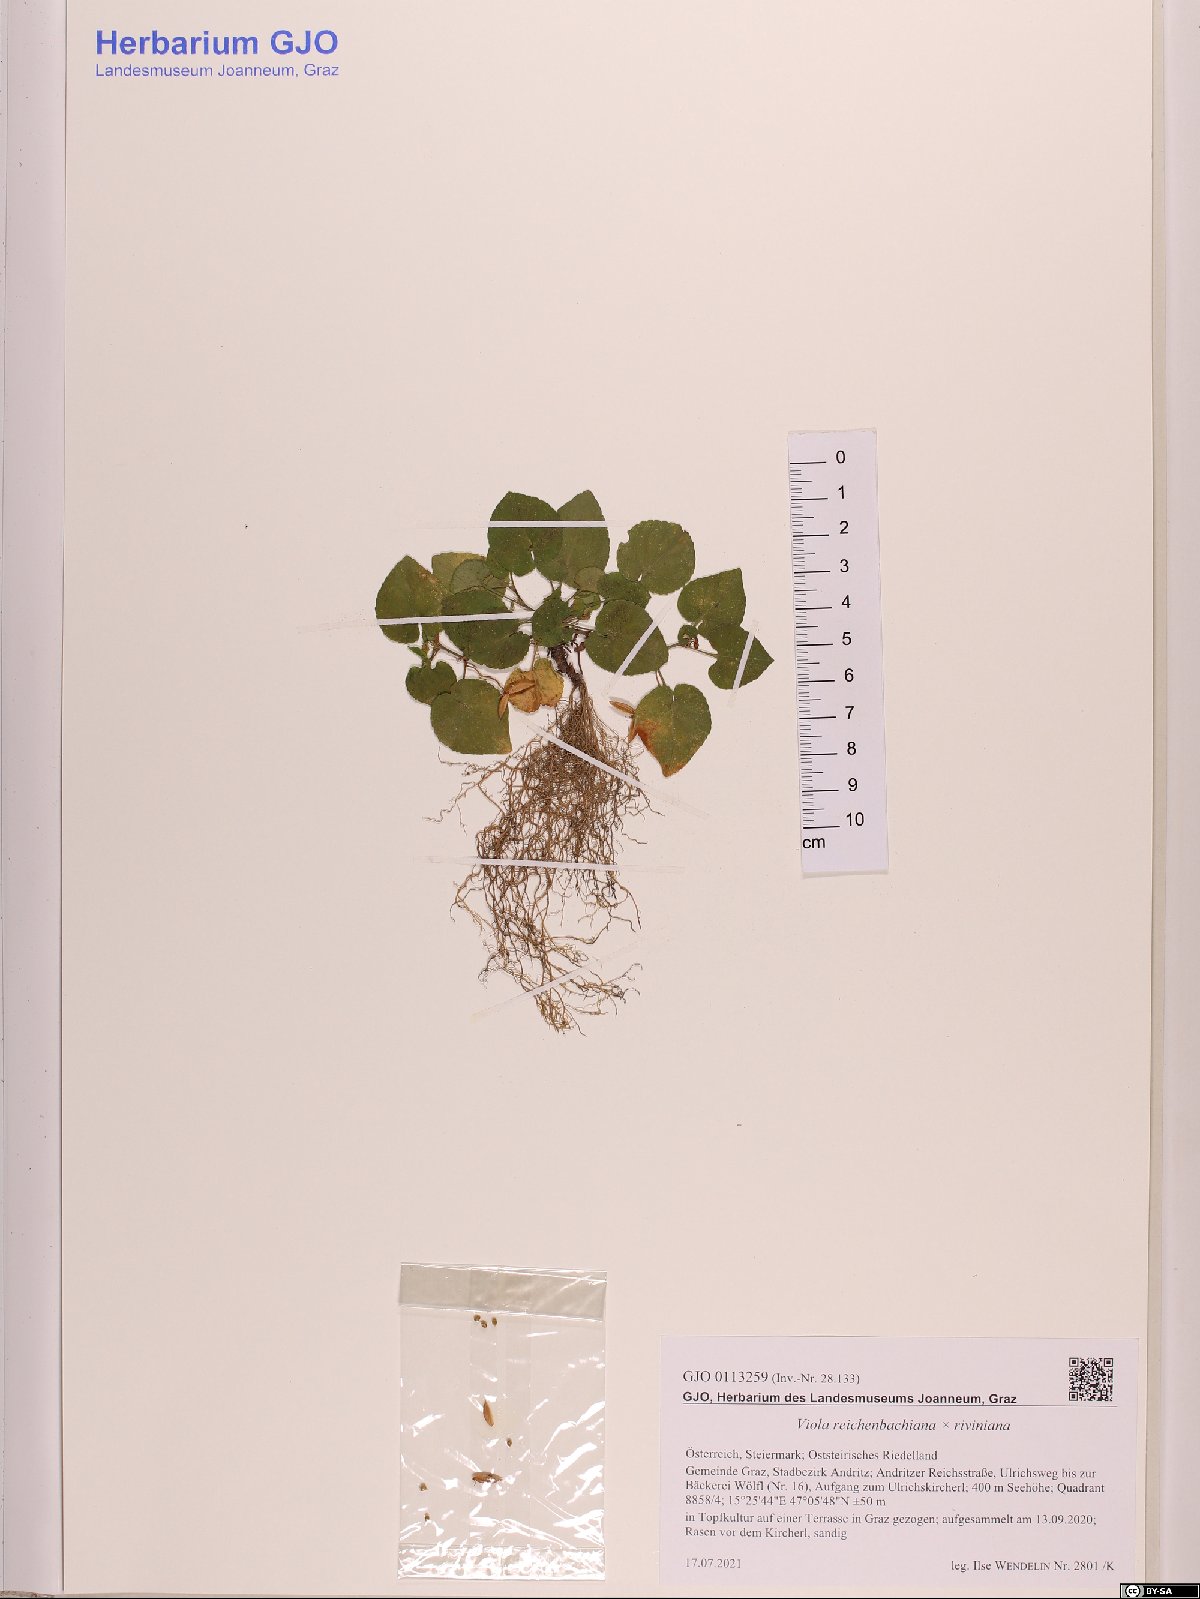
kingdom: Plantae
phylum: Tracheophyta
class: Magnoliopsida
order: Malpighiales
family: Violaceae
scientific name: Violaceae
